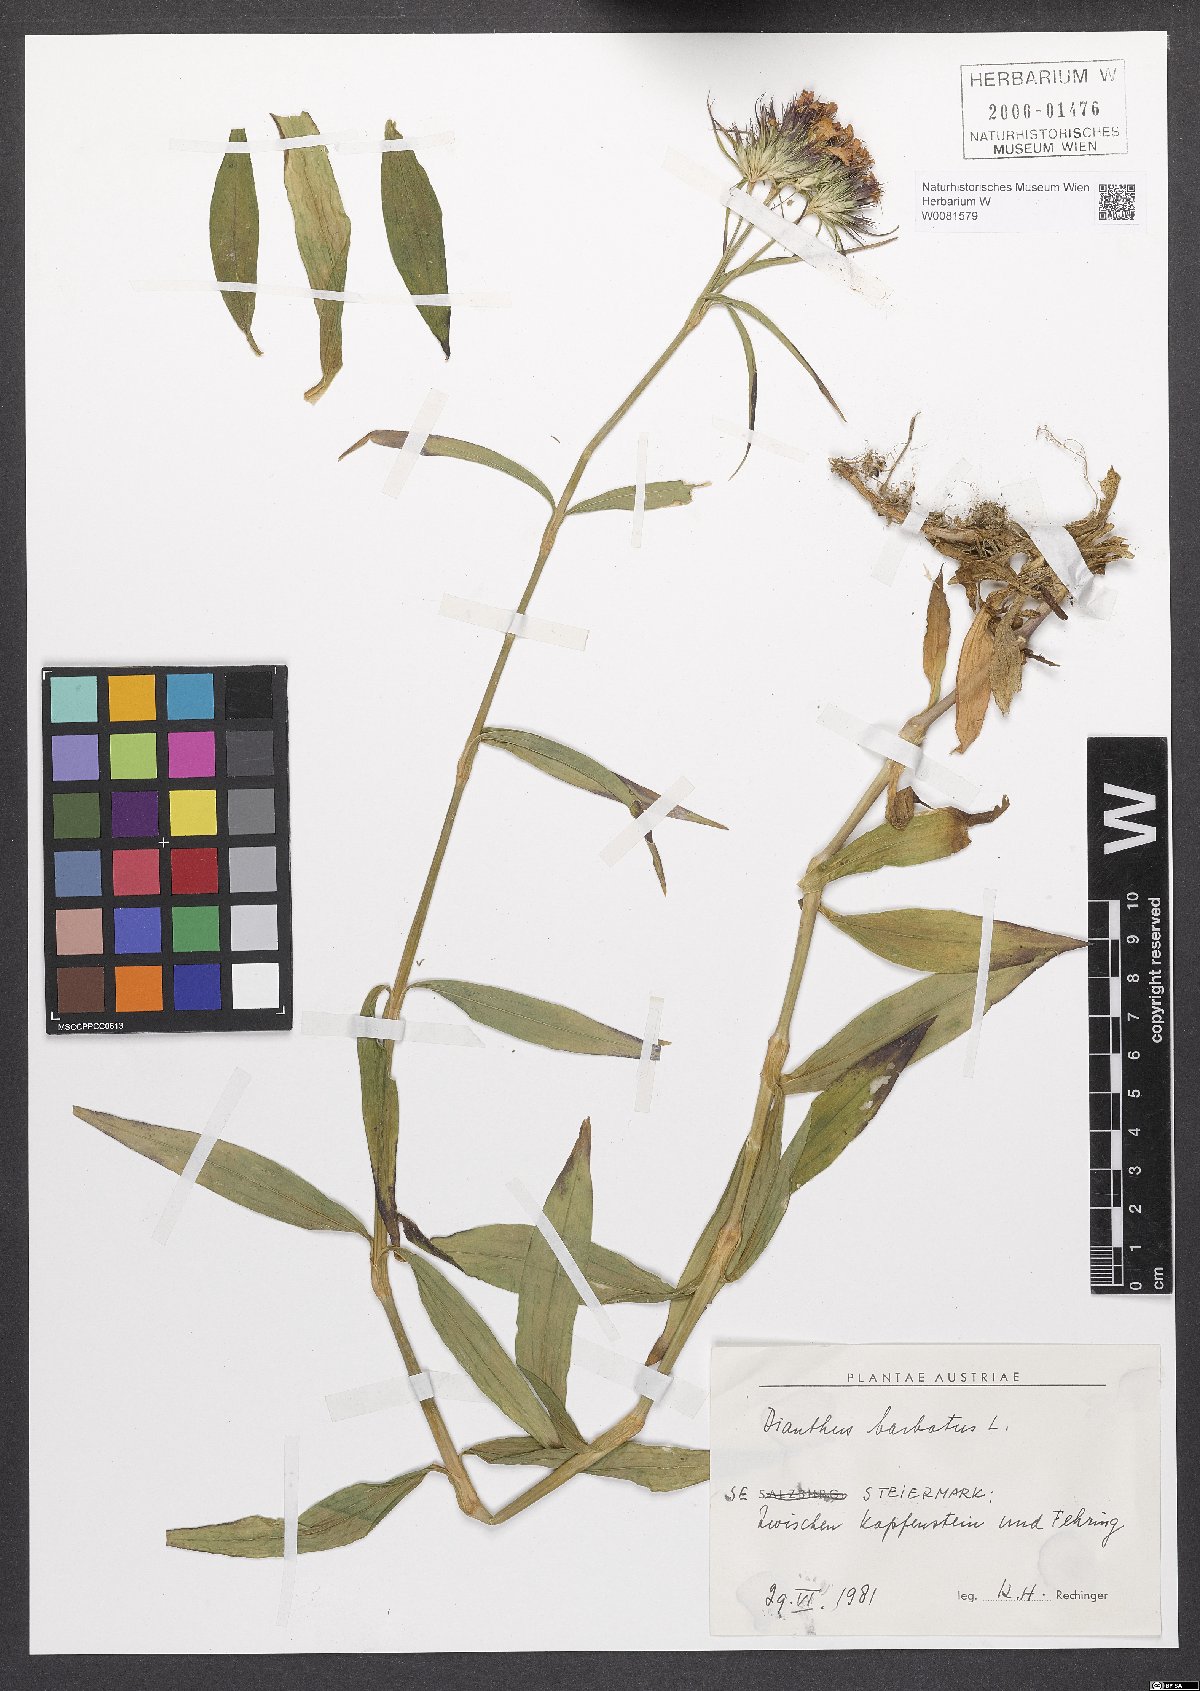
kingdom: Plantae
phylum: Tracheophyta
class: Magnoliopsida
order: Caryophyllales
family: Caryophyllaceae
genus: Dianthus
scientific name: Dianthus barbatus
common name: Sweet-william
